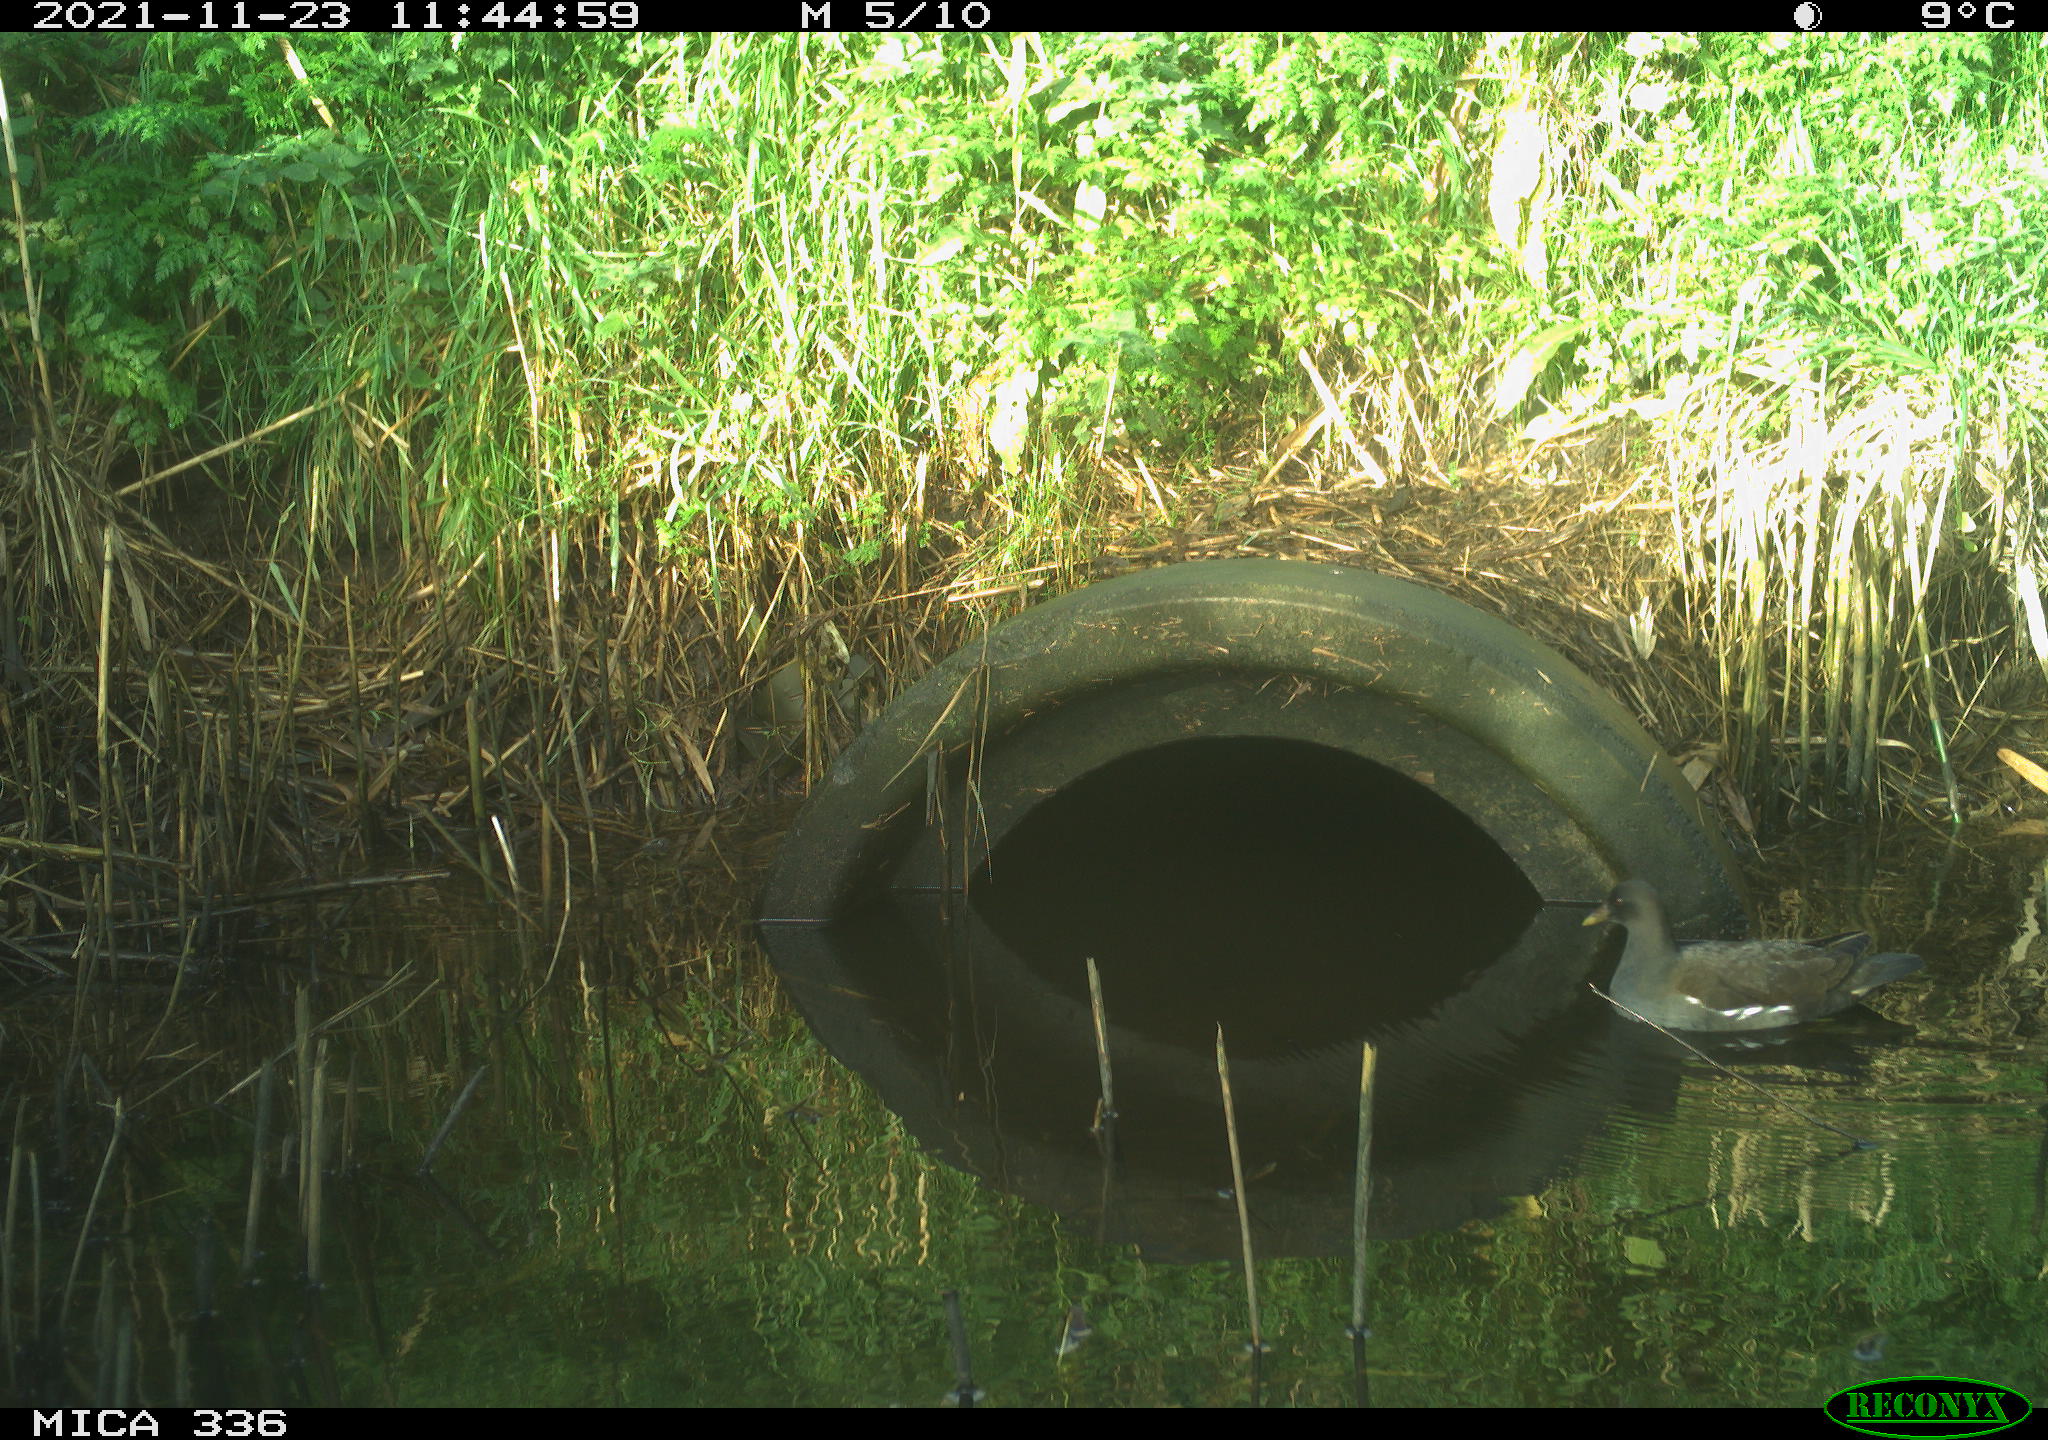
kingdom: Animalia
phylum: Chordata
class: Aves
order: Gruiformes
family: Rallidae
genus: Gallinula
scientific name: Gallinula chloropus
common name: Common moorhen
